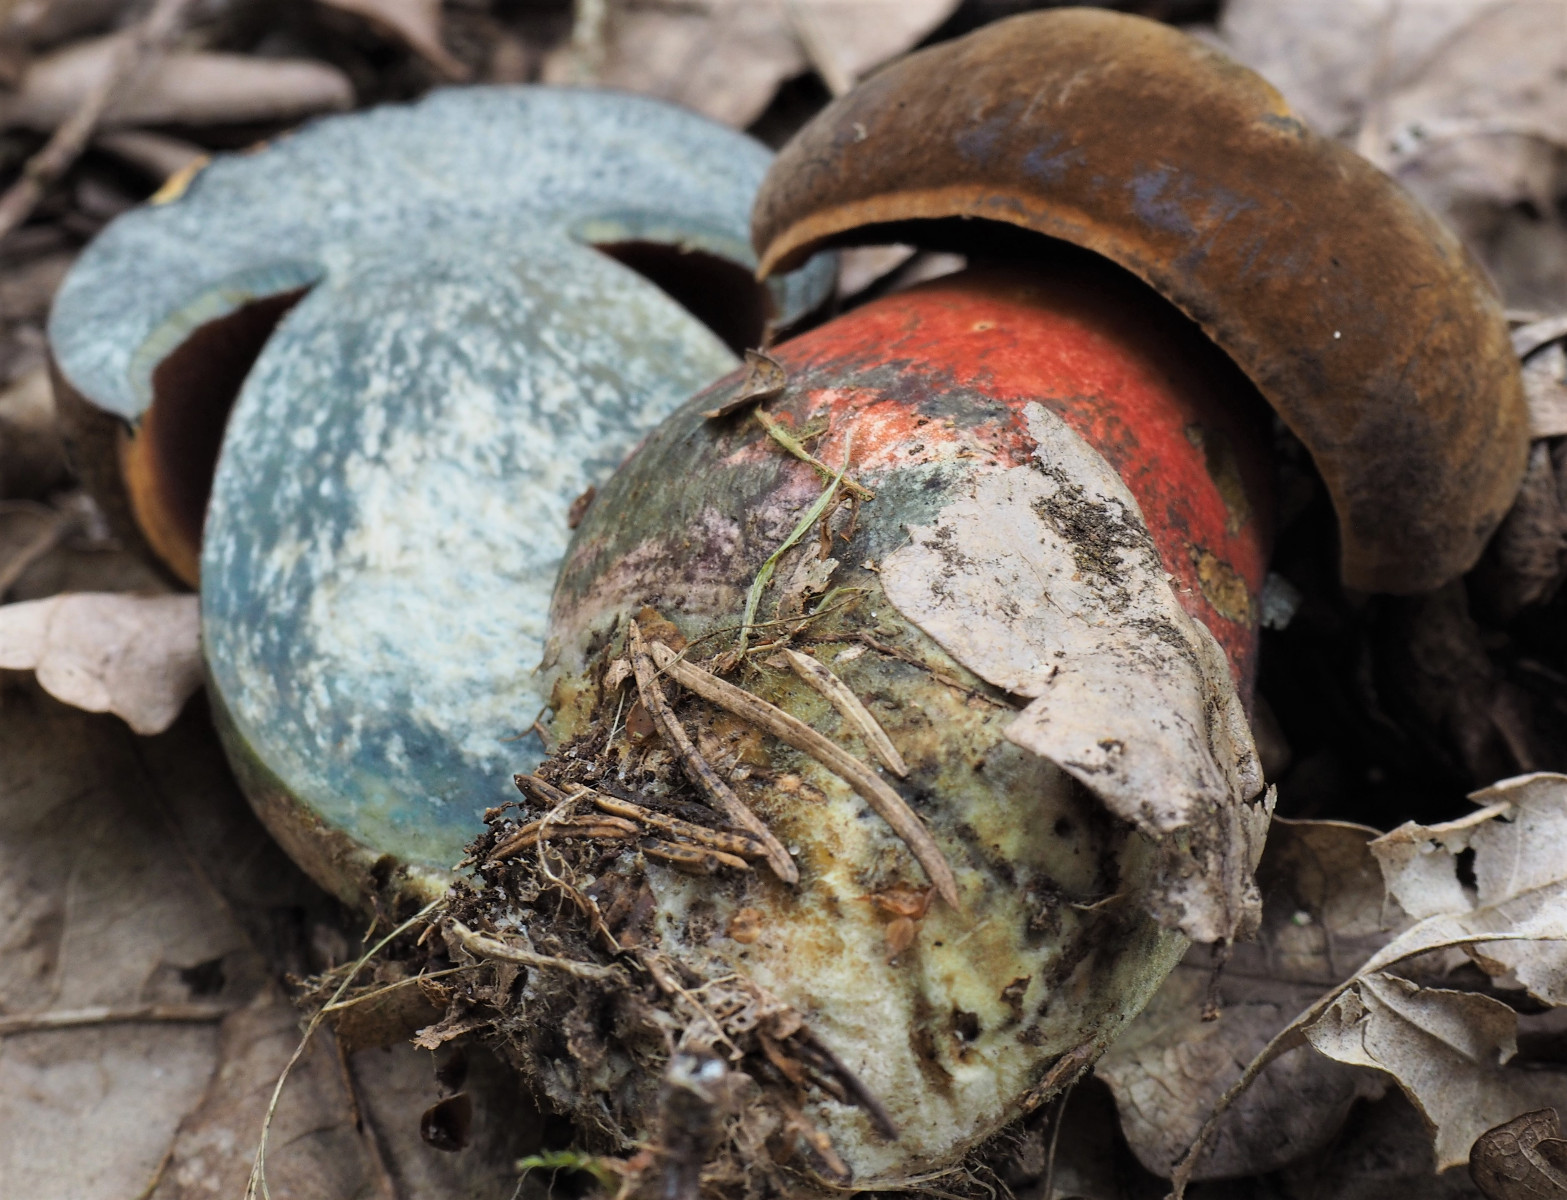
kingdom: Fungi
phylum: Basidiomycota
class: Agaricomycetes
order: Boletales
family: Boletaceae
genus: Neoboletus
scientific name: Neoboletus erythropus
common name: punktstokket indigorørhat
